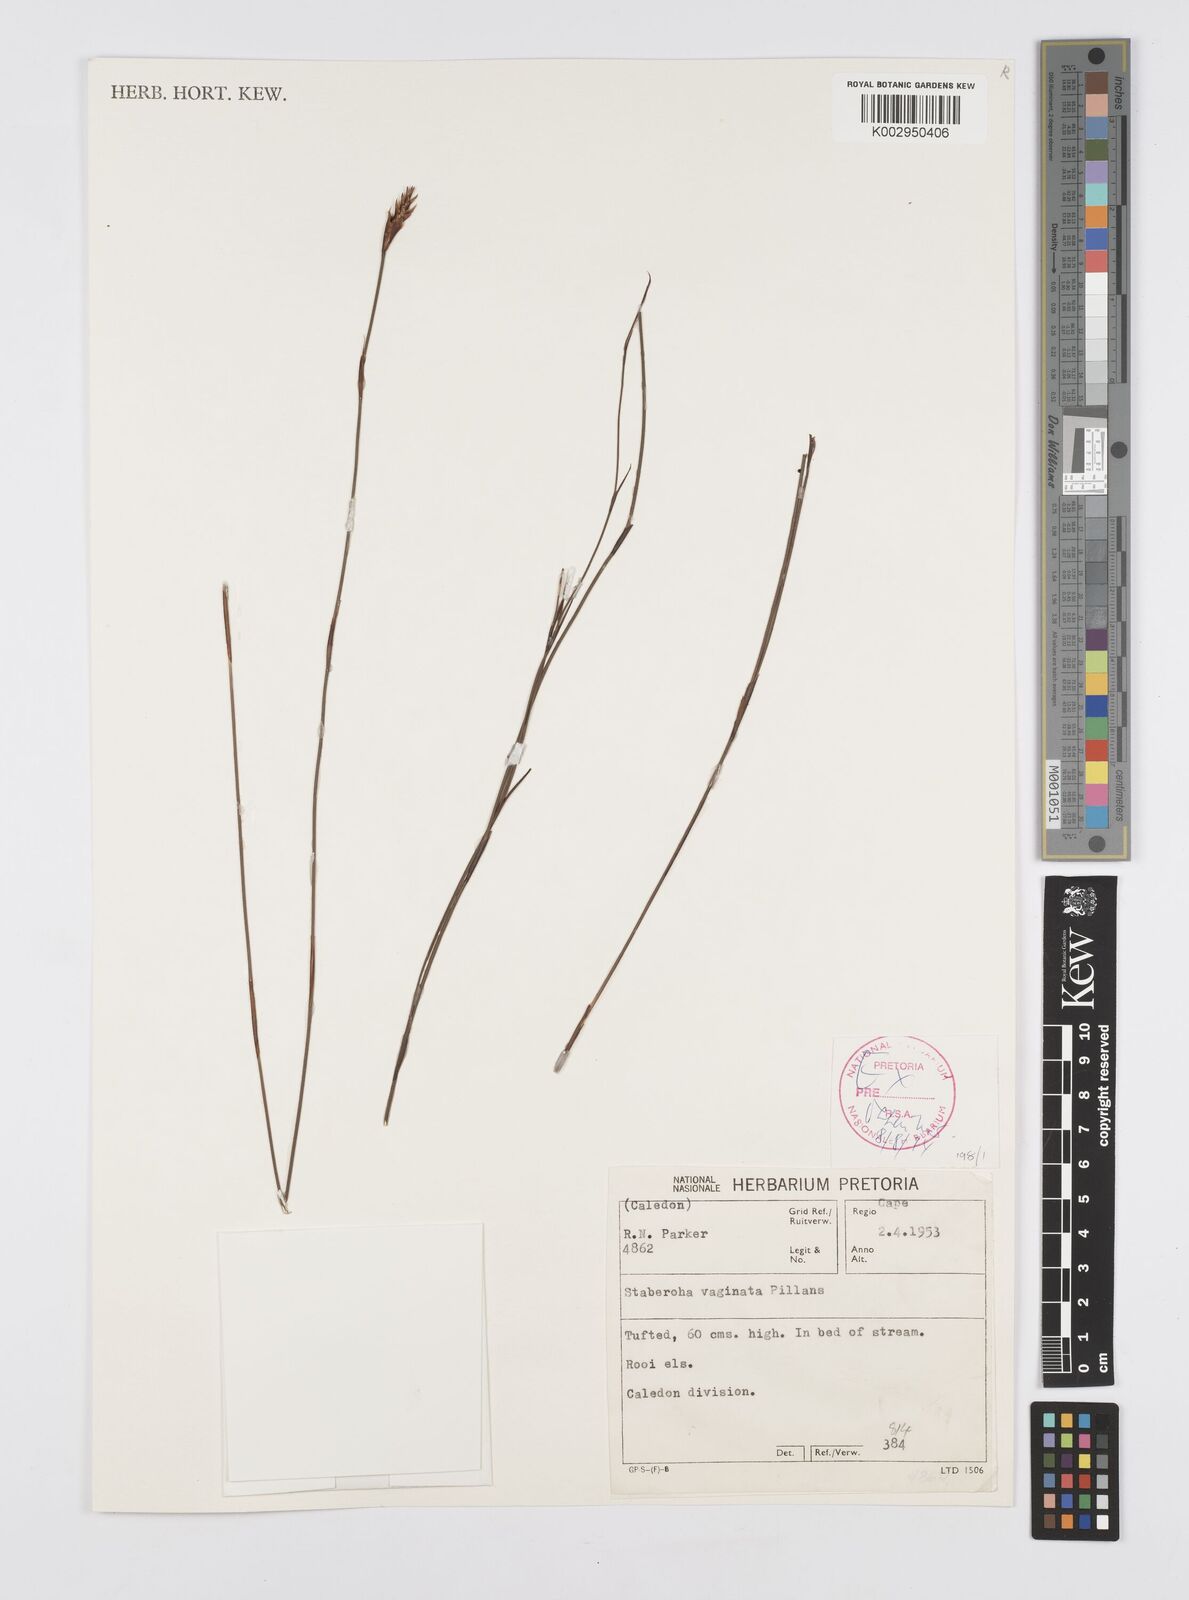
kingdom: Plantae
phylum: Tracheophyta
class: Liliopsida
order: Poales
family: Restionaceae
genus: Staberoha
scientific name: Staberoha vaginata
